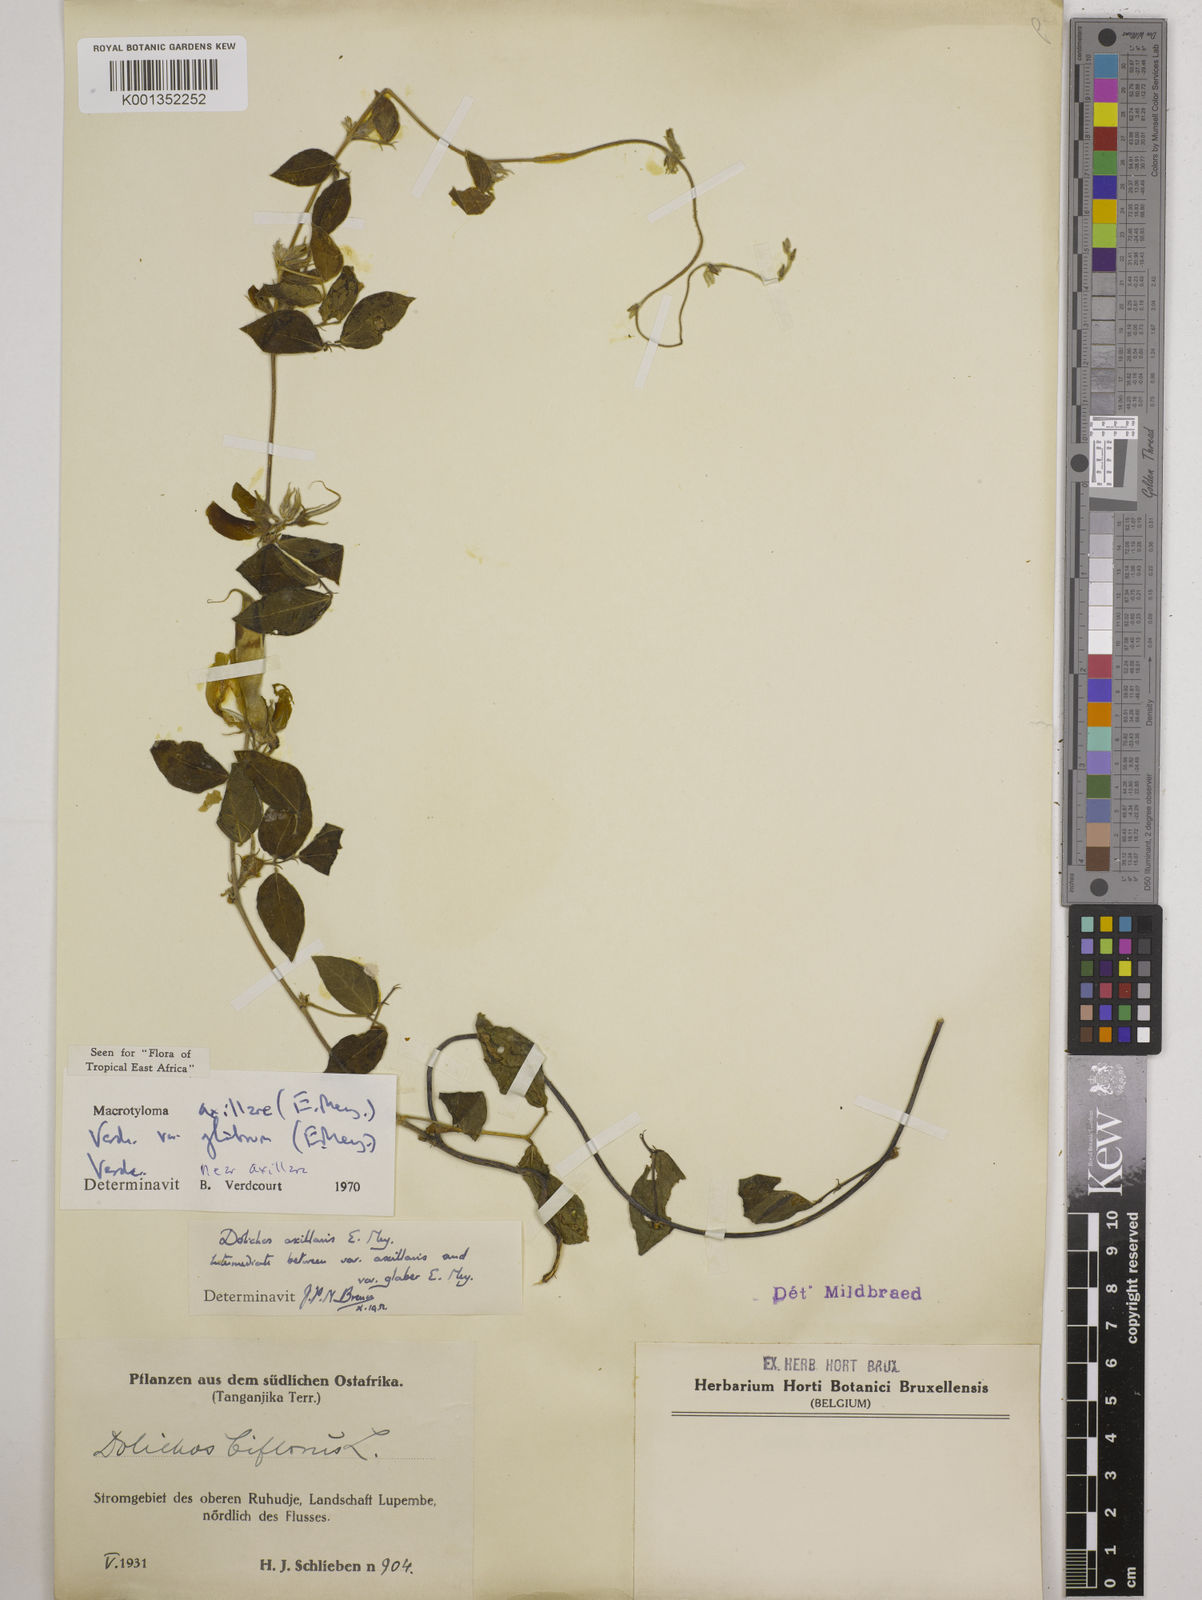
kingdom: Plantae
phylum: Tracheophyta
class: Magnoliopsida
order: Fabales
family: Fabaceae
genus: Macrotyloma
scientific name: Macrotyloma
